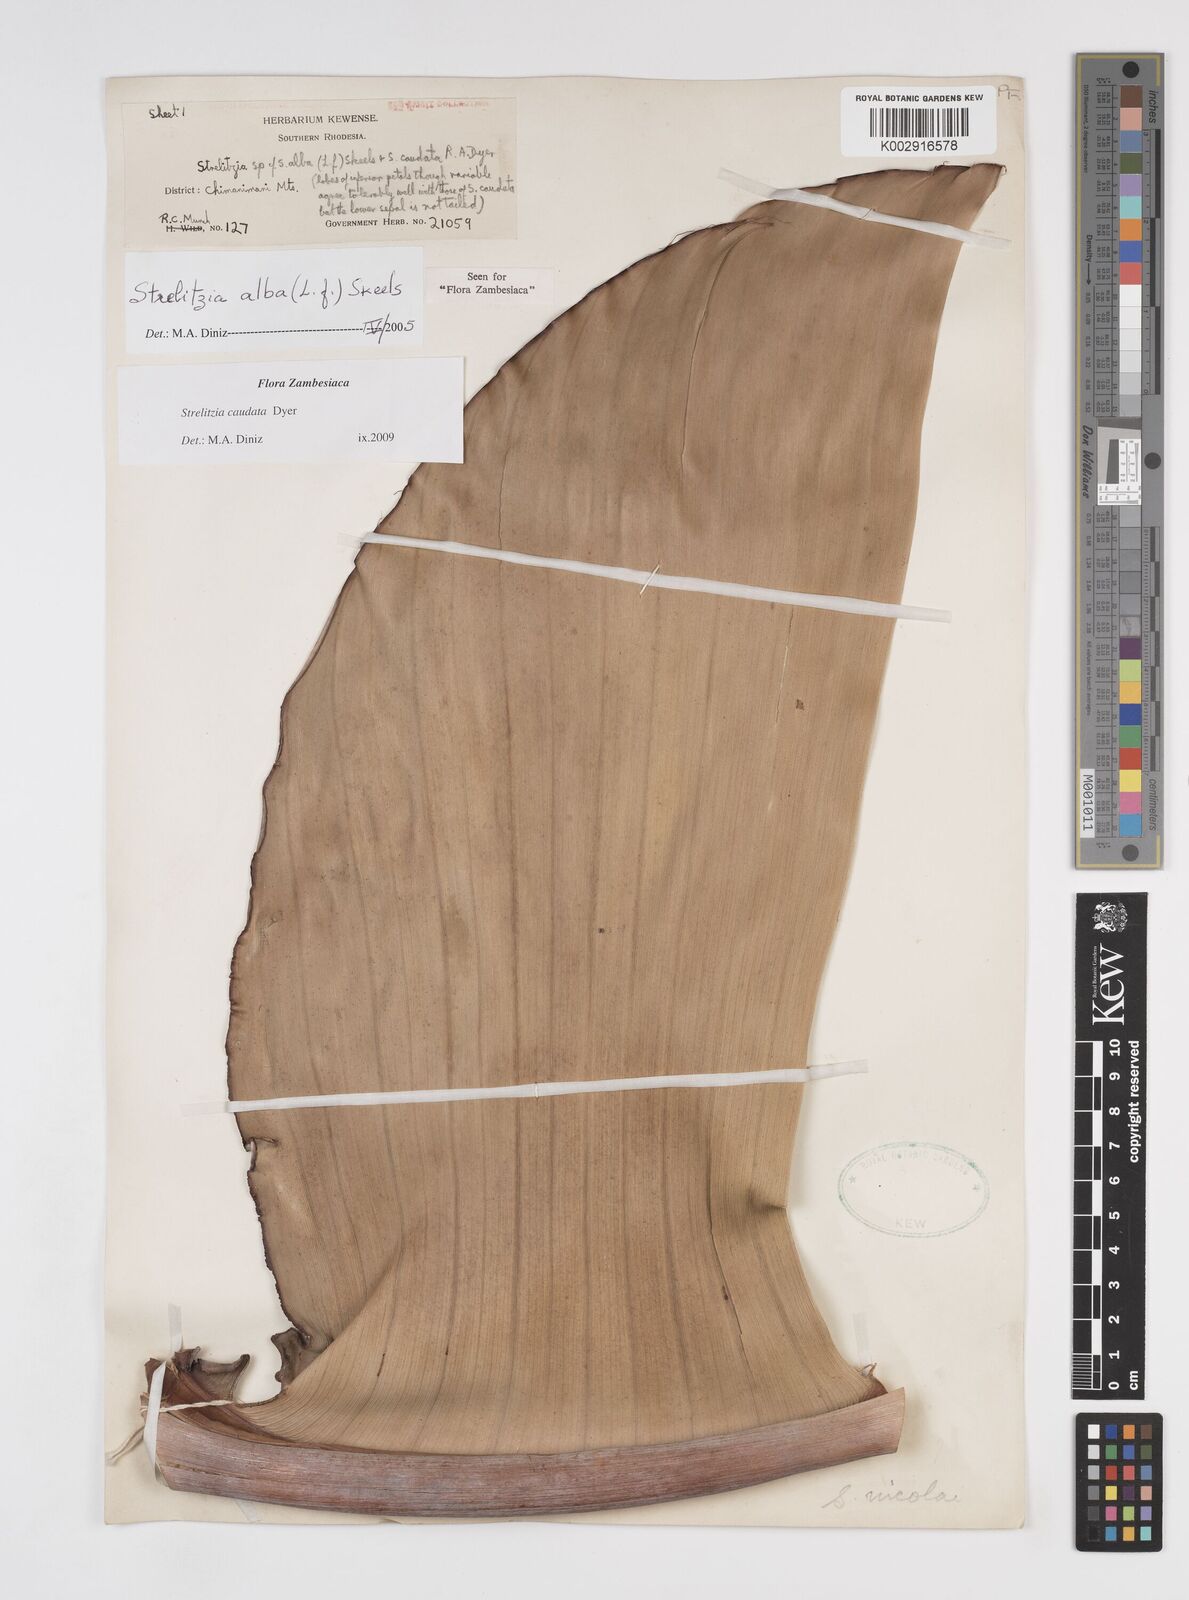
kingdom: Plantae
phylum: Tracheophyta
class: Liliopsida
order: Zingiberales
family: Strelitziaceae
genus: Strelitzia
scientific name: Strelitzia caudata
